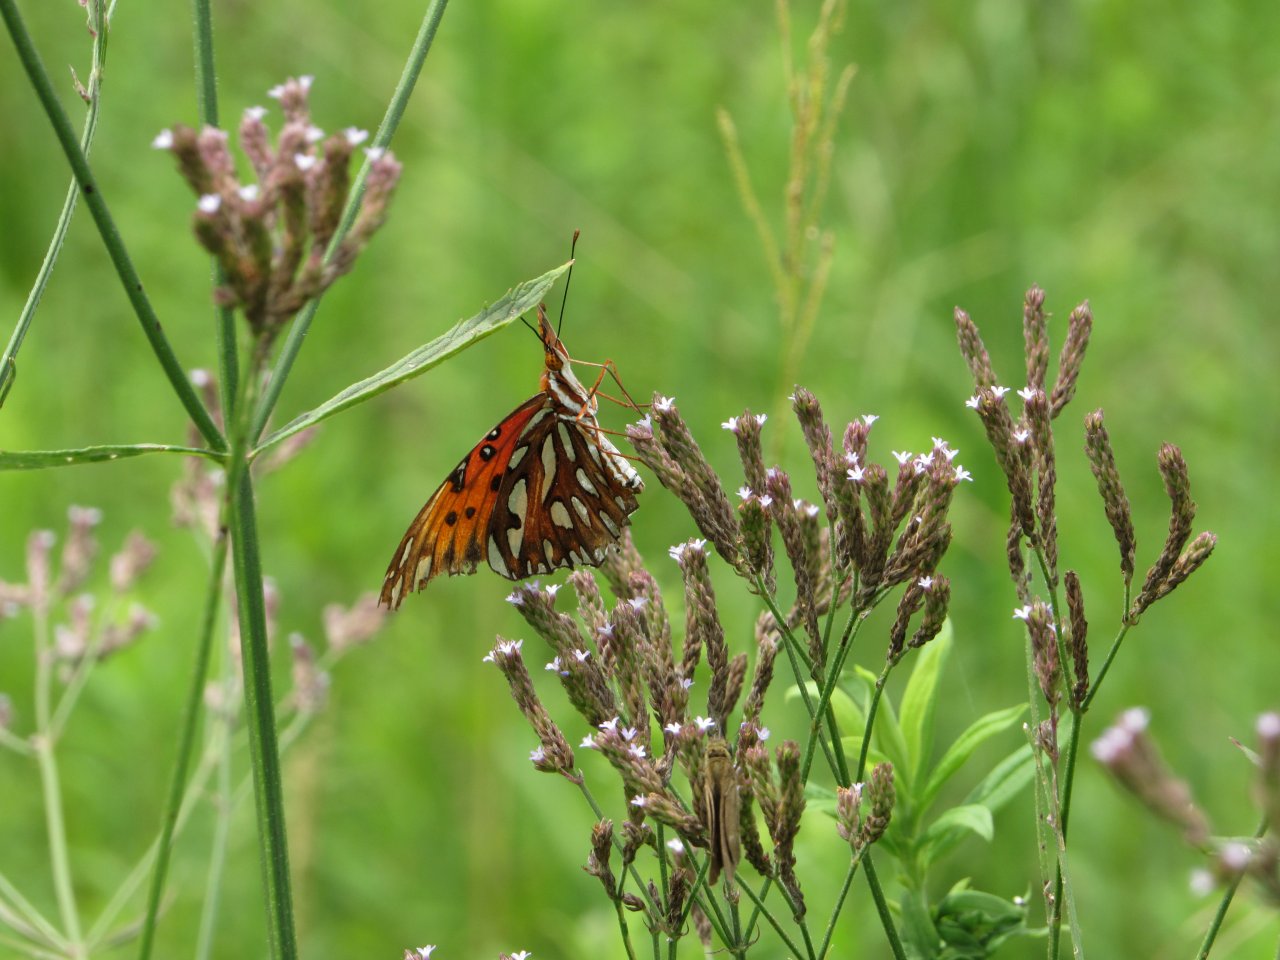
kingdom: Animalia
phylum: Arthropoda
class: Insecta
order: Lepidoptera
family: Nymphalidae
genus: Dione
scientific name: Dione vanillae
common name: Gulf Fritillary
